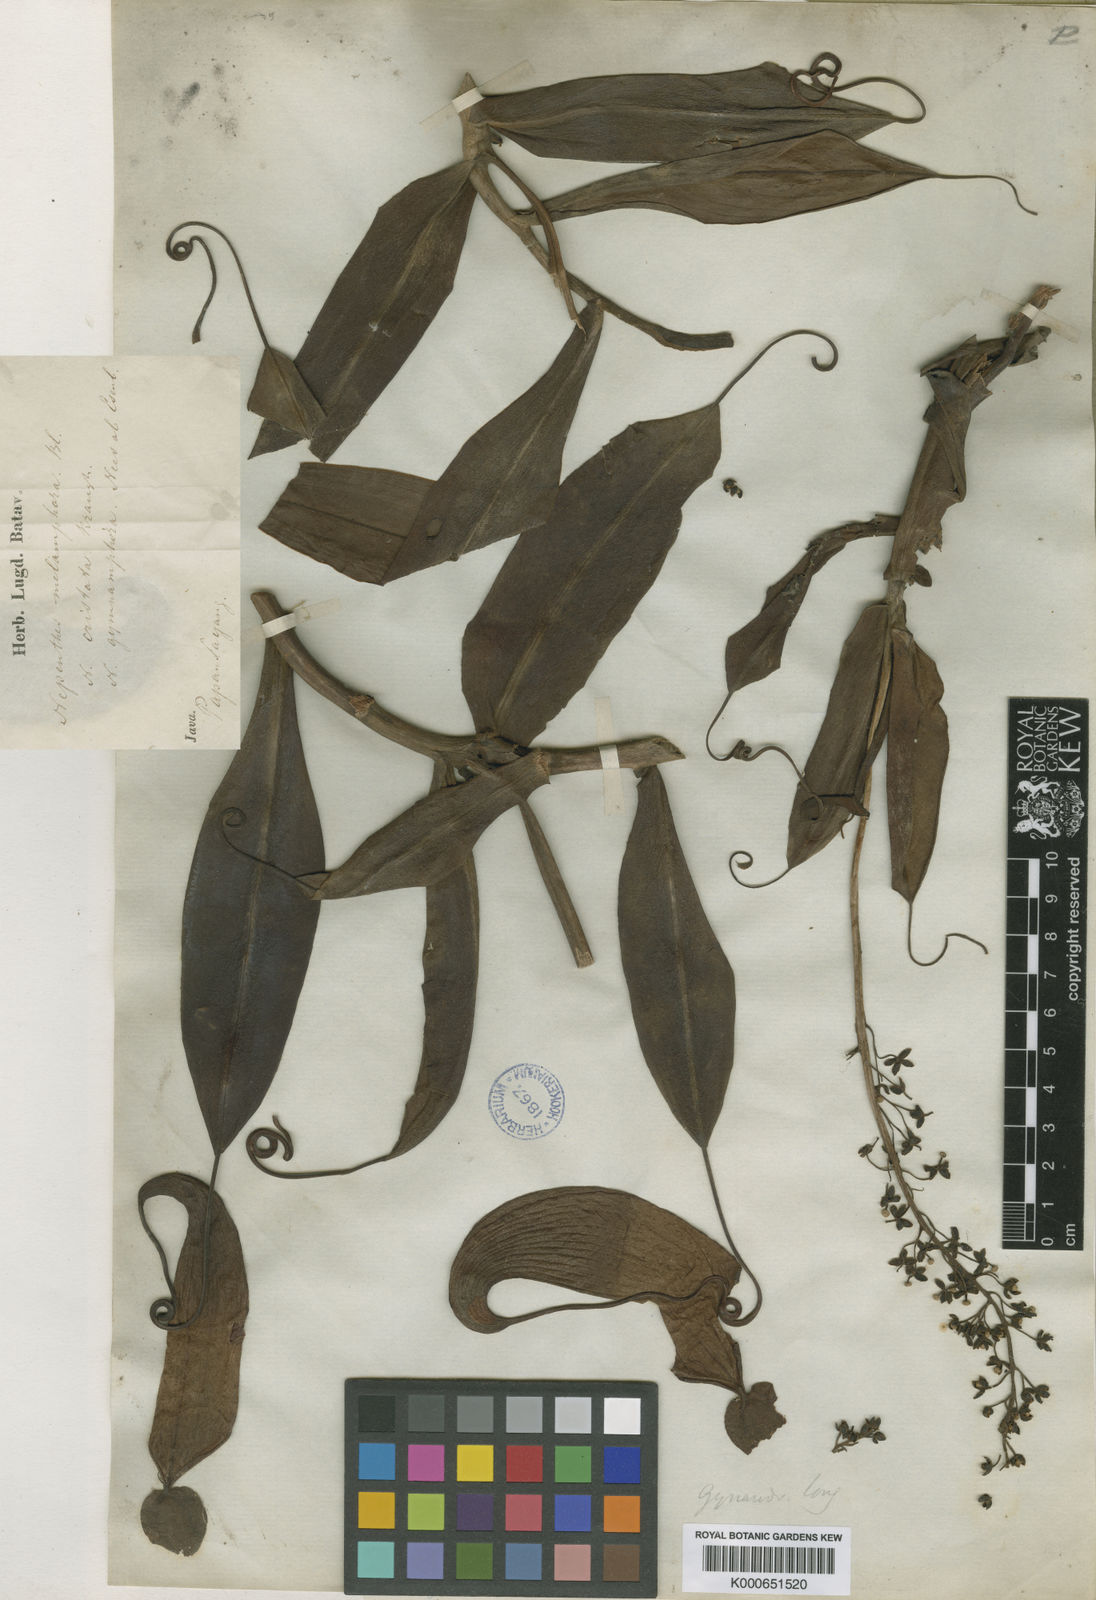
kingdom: Plantae
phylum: Tracheophyta
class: Magnoliopsida
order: Caryophyllales
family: Nepenthaceae
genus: Nepenthes
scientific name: Nepenthes gymnamphora
